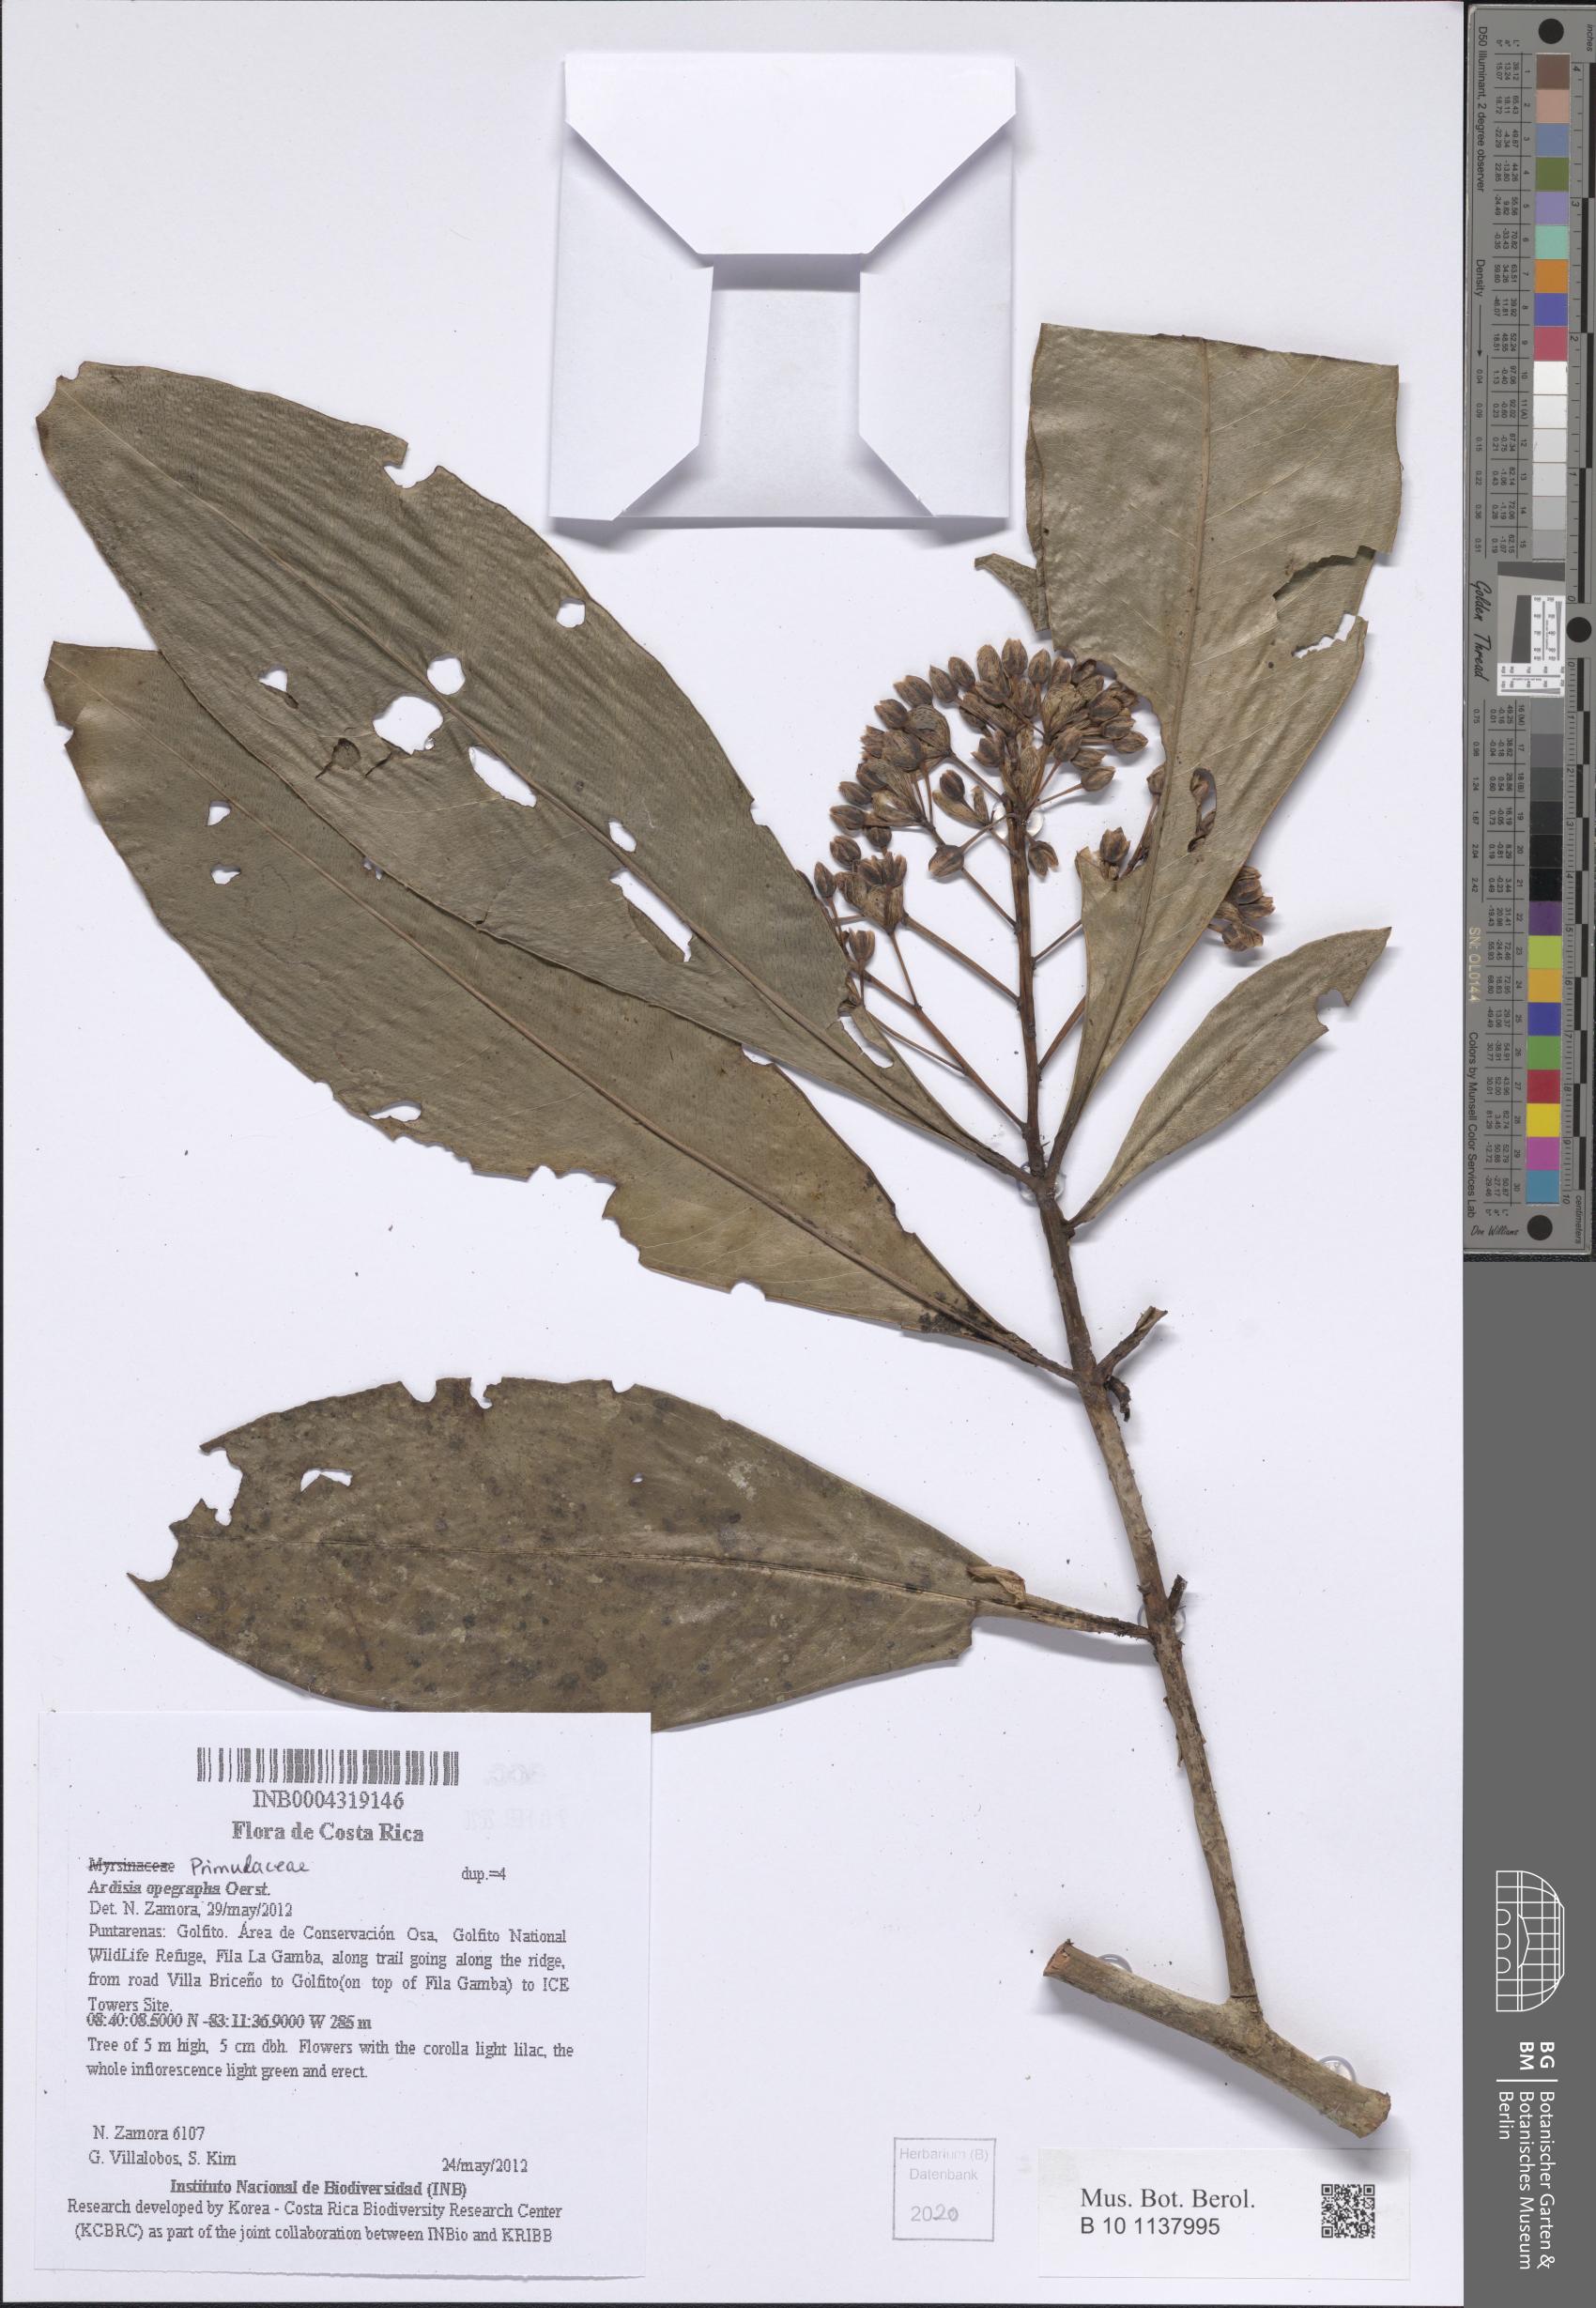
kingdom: Plantae
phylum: Tracheophyta
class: Magnoliopsida
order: Ericales
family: Primulaceae
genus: Ardisia
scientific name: Ardisia opegrapha
